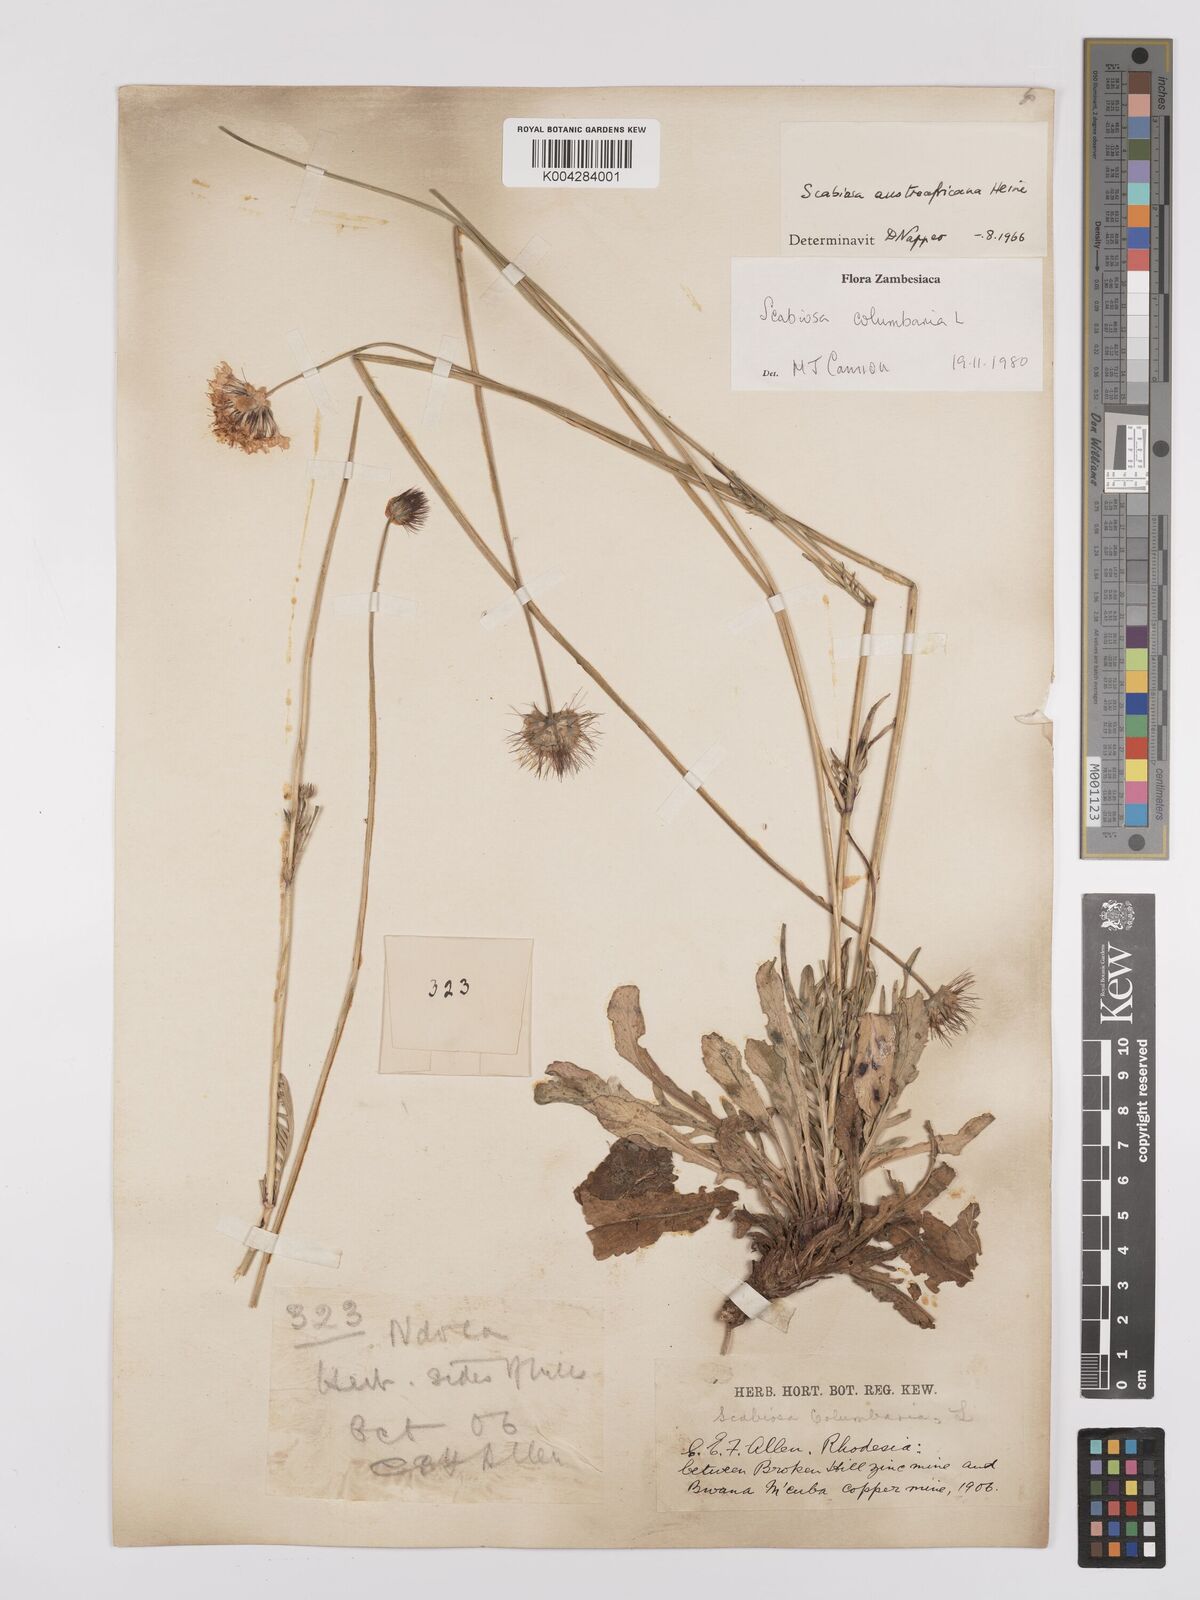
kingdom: Plantae
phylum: Tracheophyta
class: Magnoliopsida
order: Dipsacales
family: Caprifoliaceae
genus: Scabiosa
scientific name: Scabiosa austroafricana
